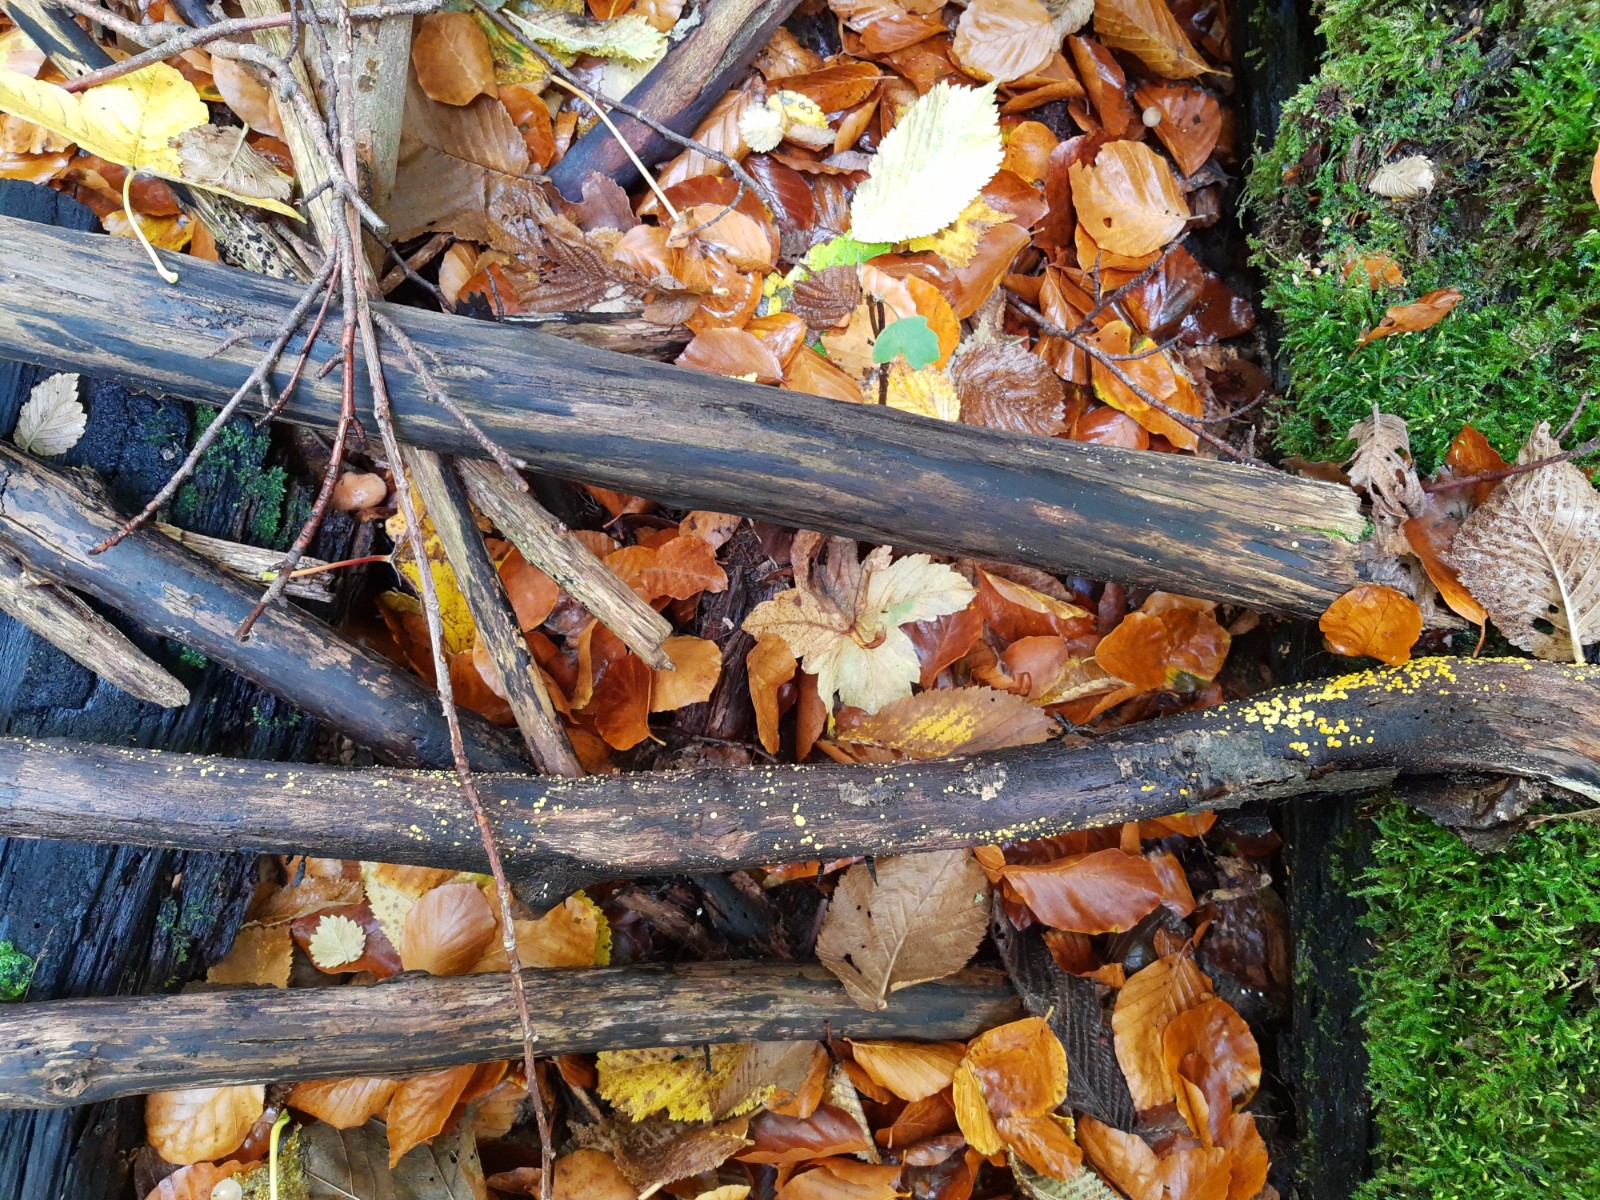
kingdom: Fungi
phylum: Ascomycota
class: Leotiomycetes
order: Helotiales
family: Pezizellaceae
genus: Calycina
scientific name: Calycina citrina
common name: almindelig gulskive
